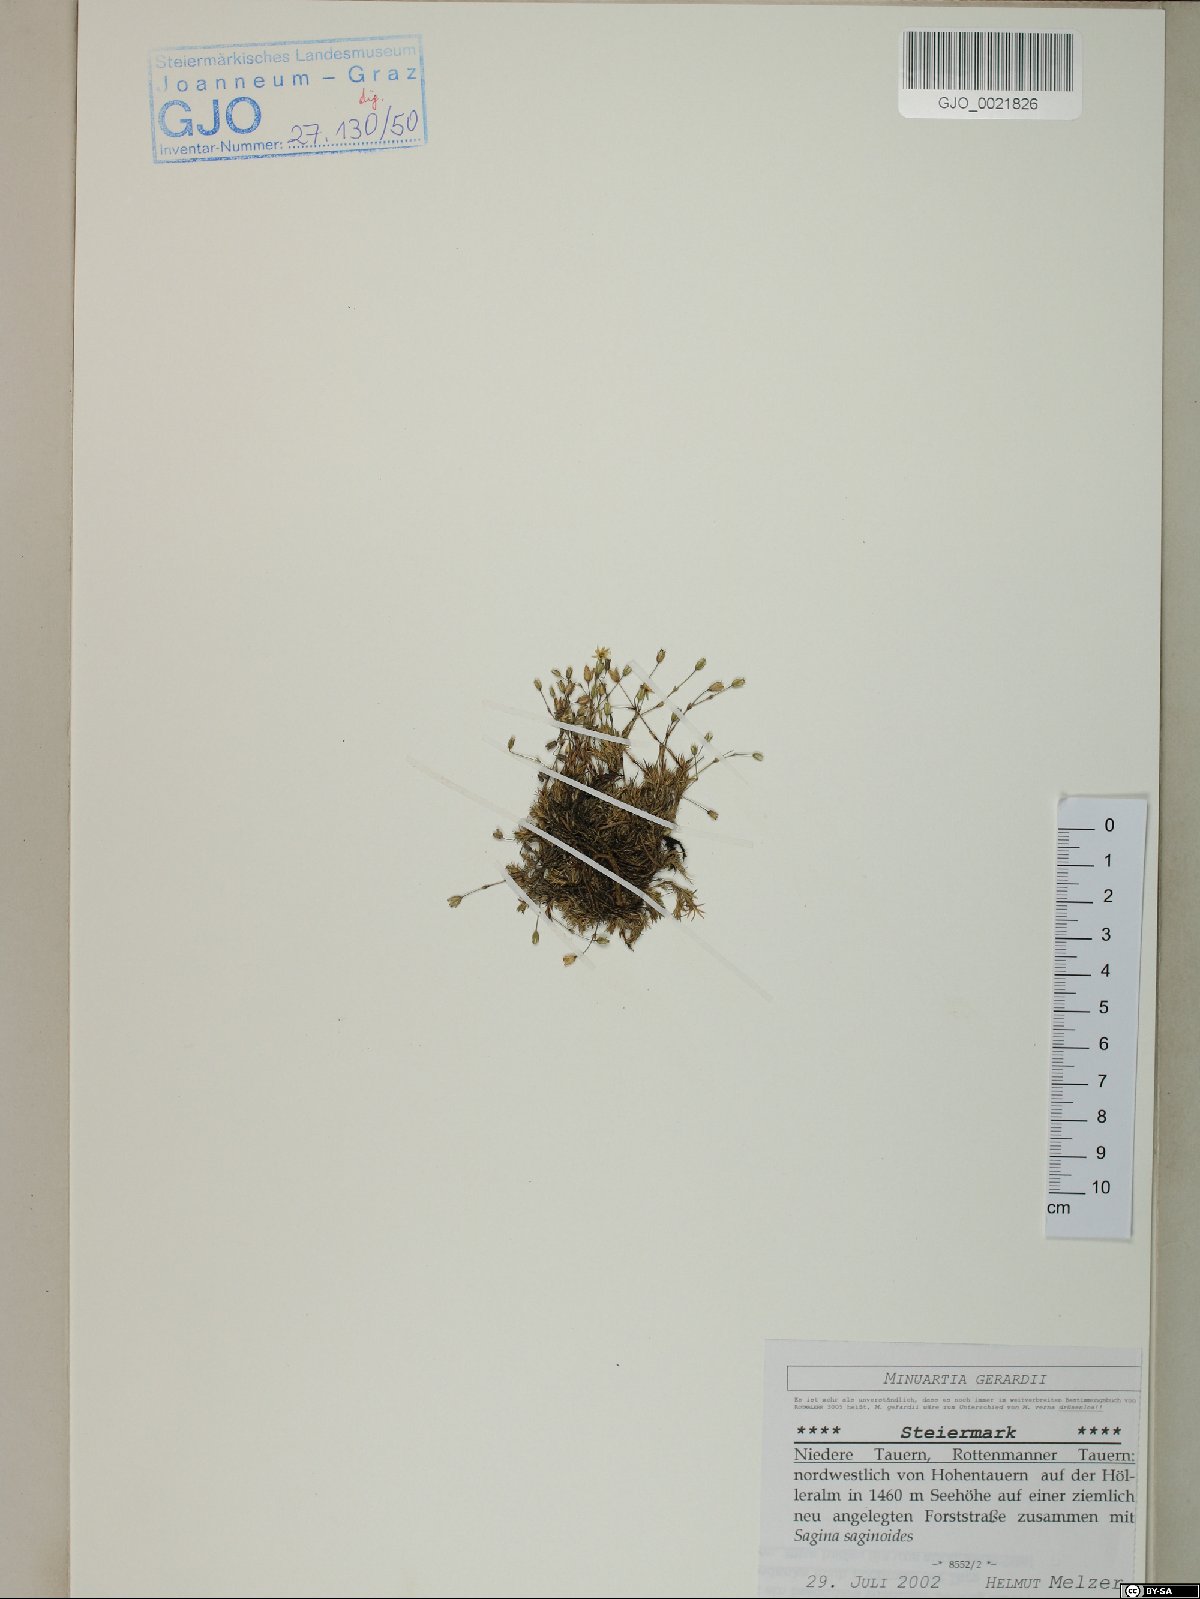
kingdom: Plantae
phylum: Tracheophyta
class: Magnoliopsida
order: Caryophyllales
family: Caryophyllaceae
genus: Sabulina
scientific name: Sabulina verna
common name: Spring sandwort
